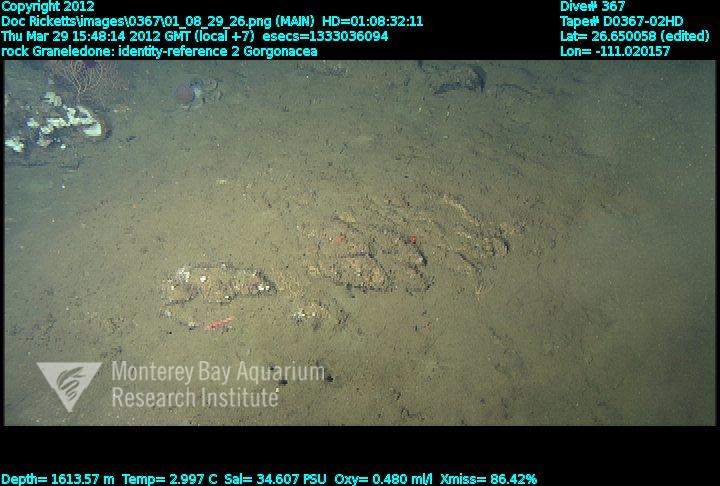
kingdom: Animalia
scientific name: Animalia
